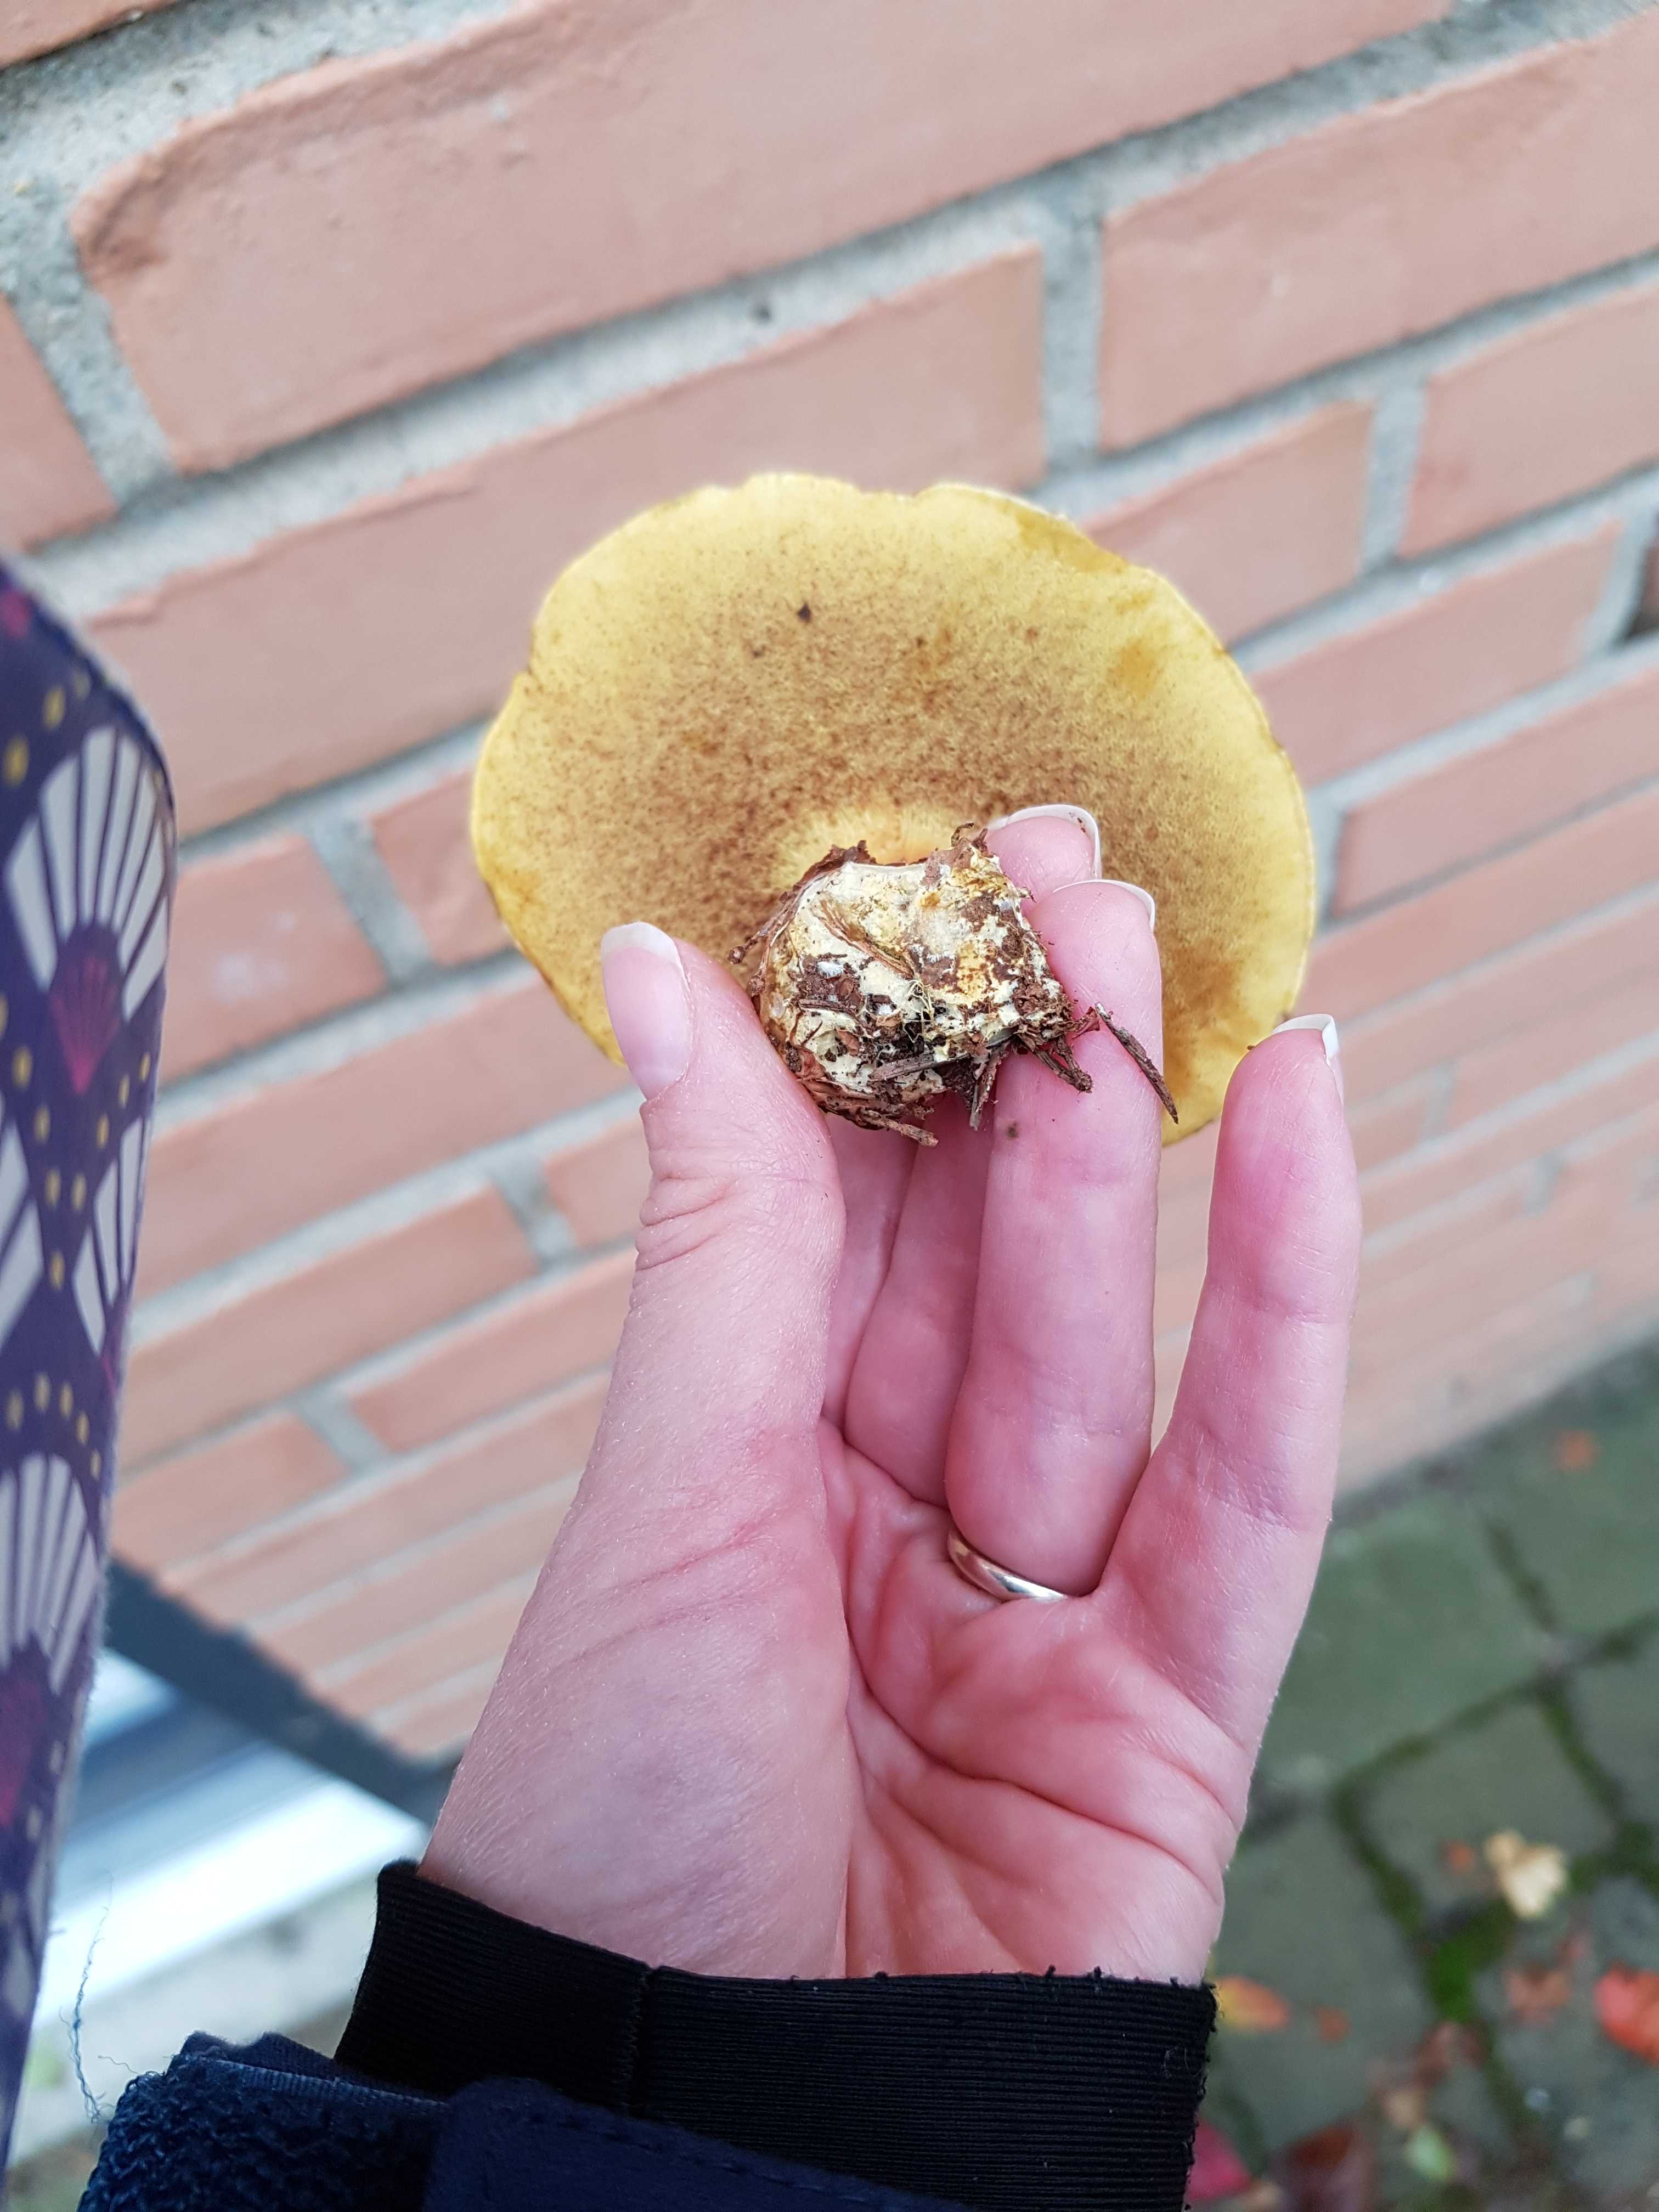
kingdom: Fungi
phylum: Basidiomycota
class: Agaricomycetes
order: Boletales
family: Boletaceae
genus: Xerocomellus
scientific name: Xerocomellus pruinatus
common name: dugget rørhat
